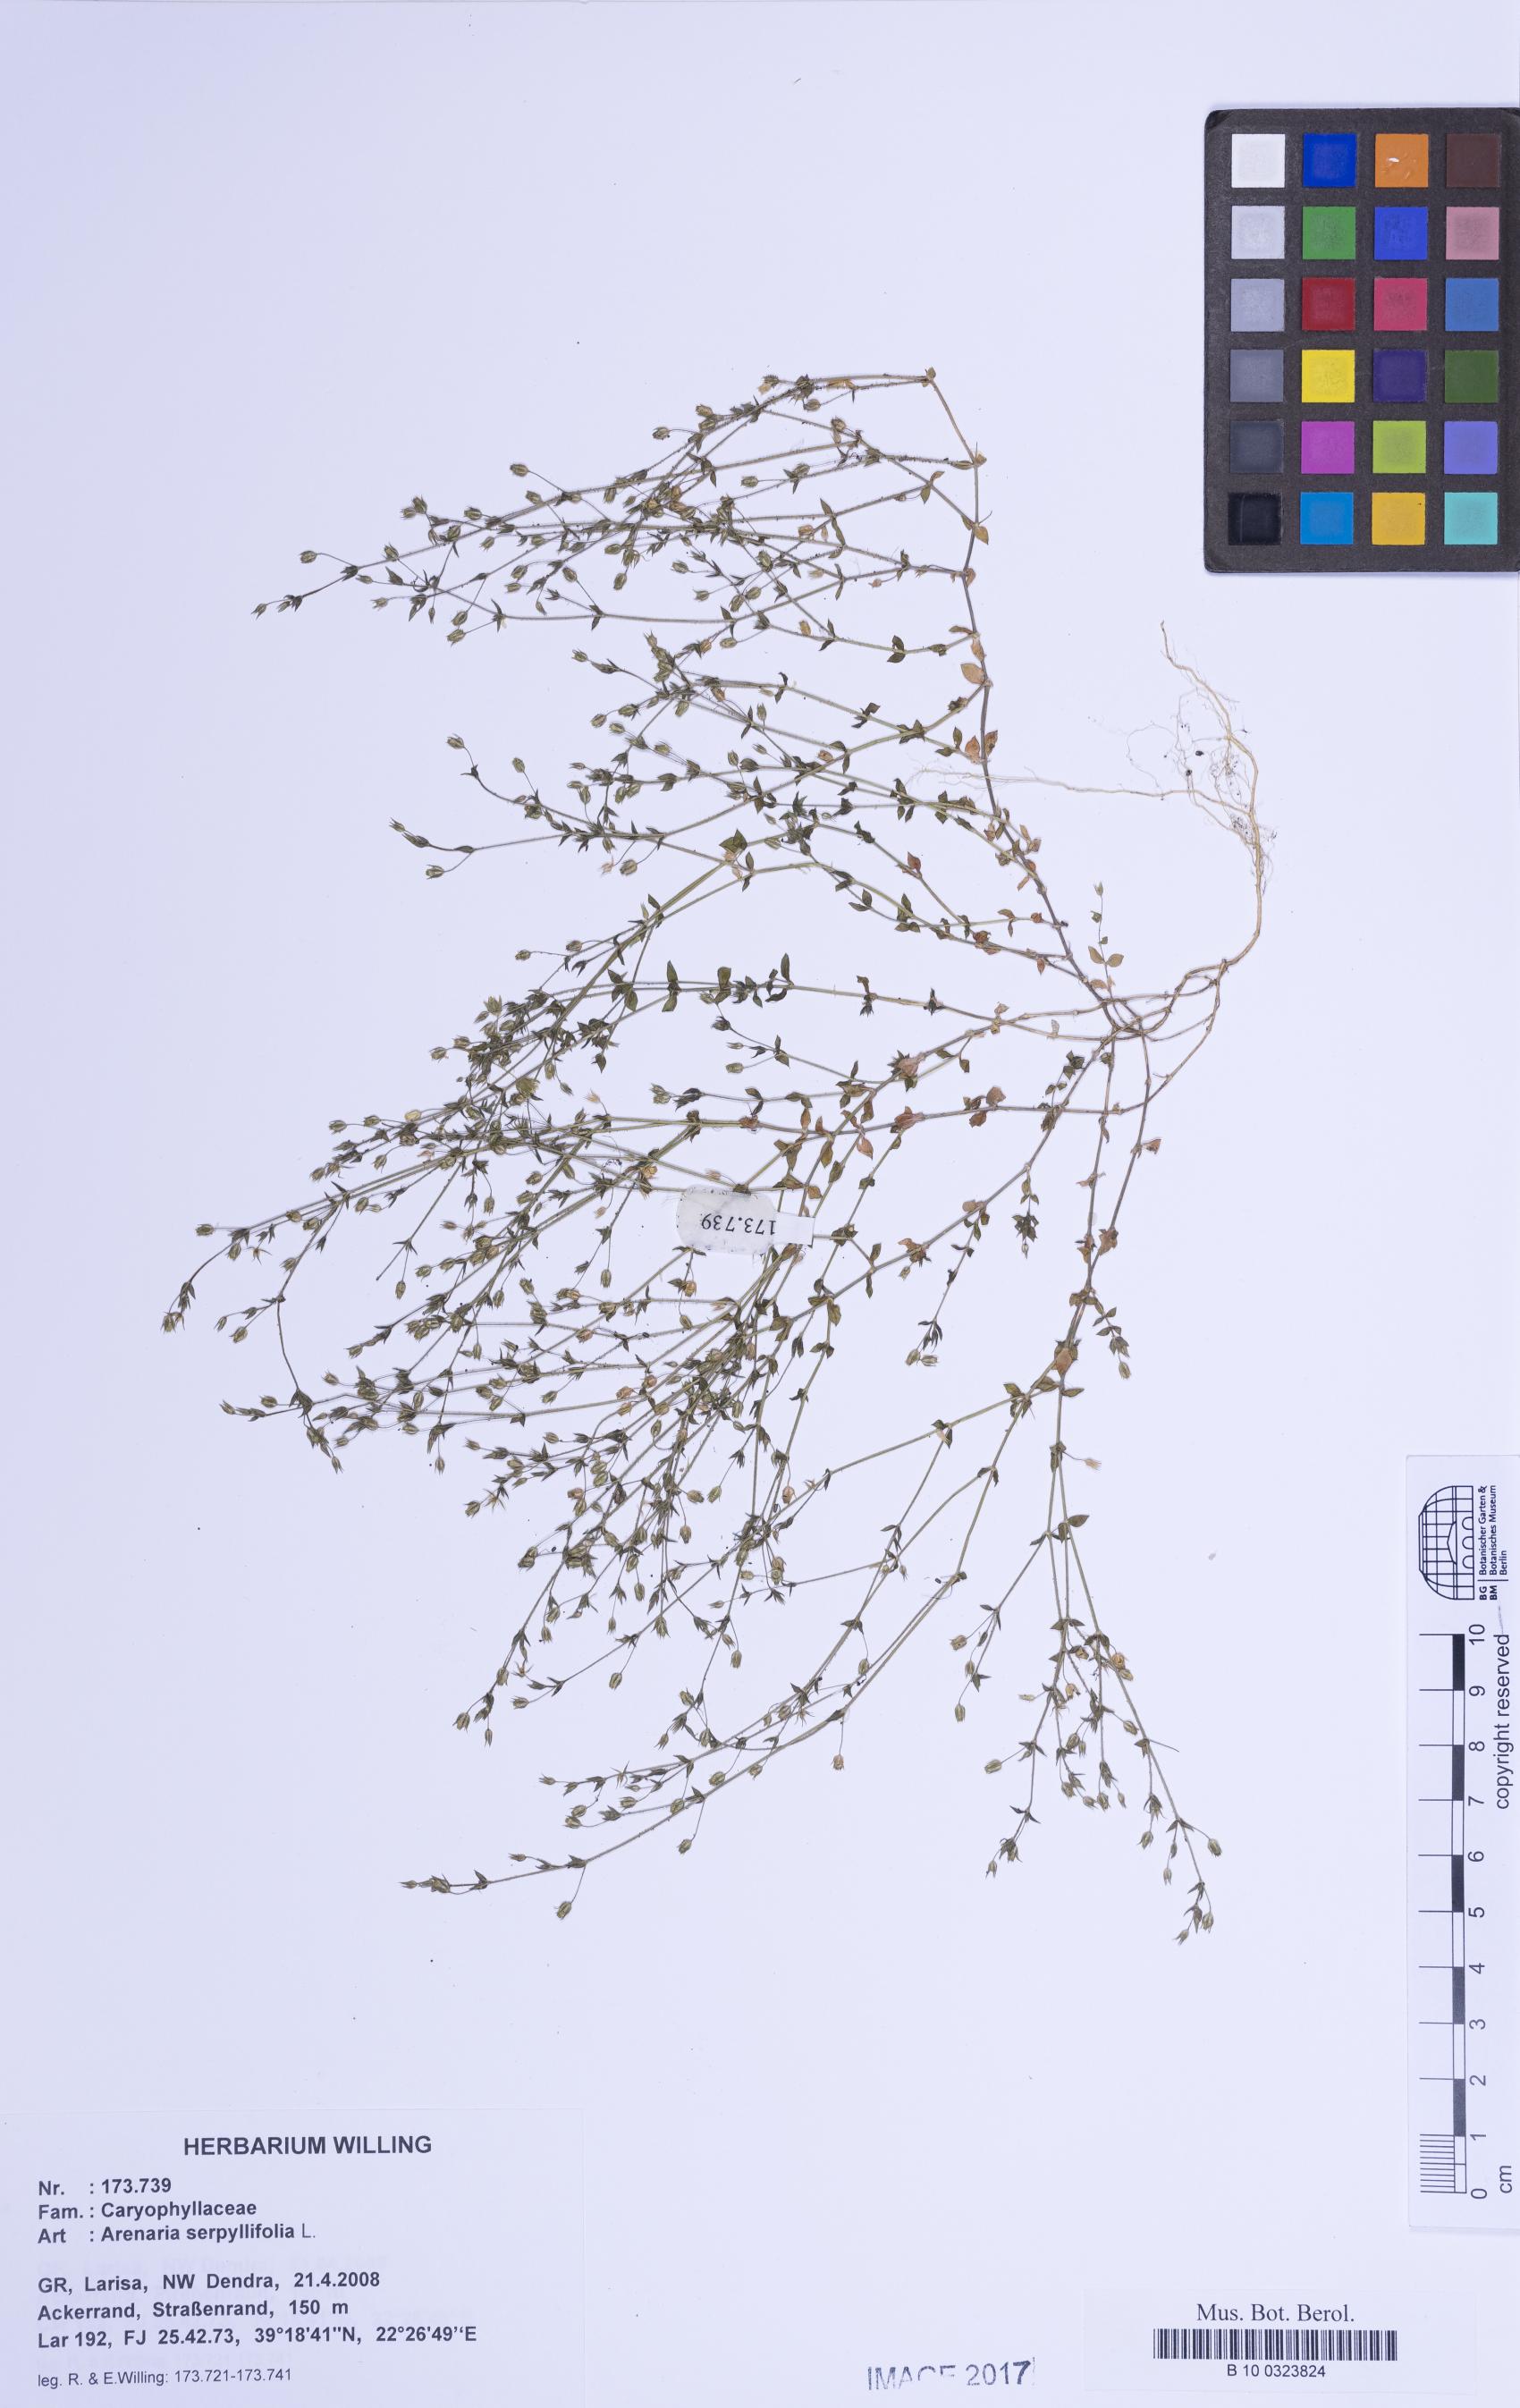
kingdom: Plantae
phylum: Tracheophyta
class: Magnoliopsida
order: Caryophyllales
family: Caryophyllaceae
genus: Arenaria
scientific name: Arenaria serpyllifolia
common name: Thyme-leaved sandwort
